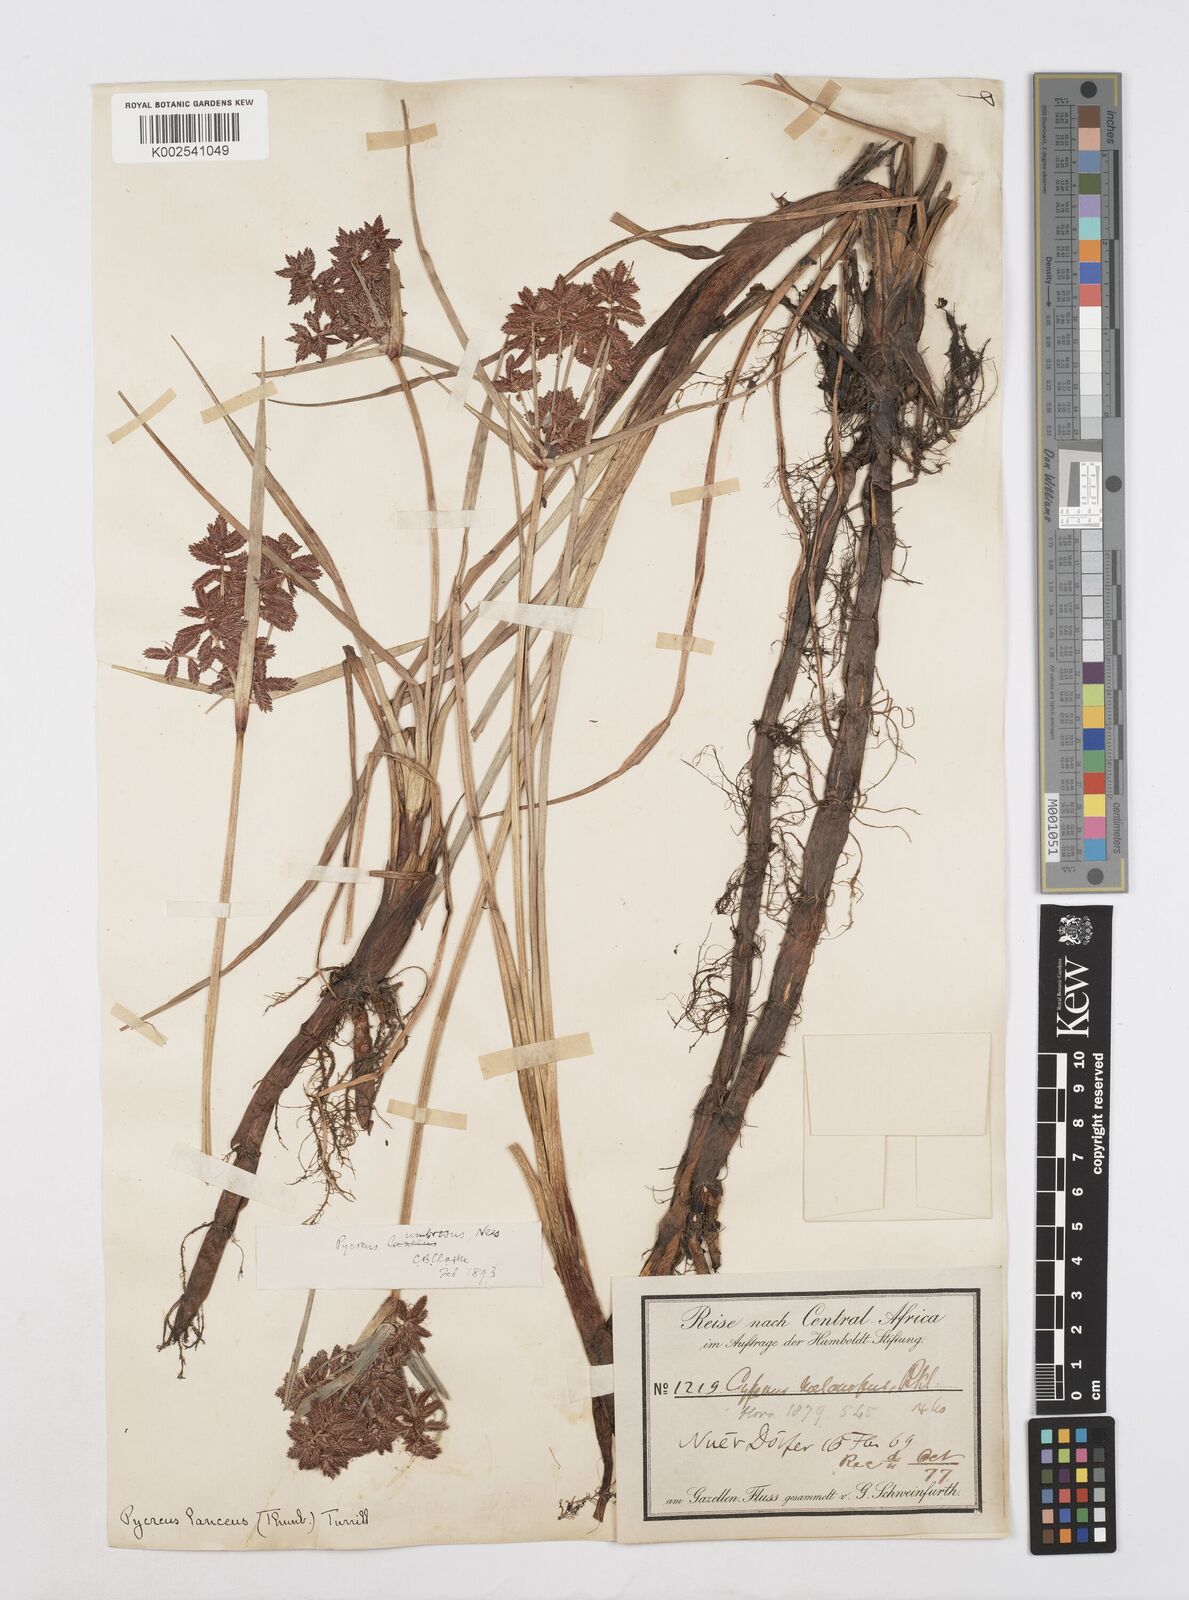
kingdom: Plantae
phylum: Tracheophyta
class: Liliopsida
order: Poales
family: Cyperaceae
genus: Cyperus
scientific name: Cyperus nitidus
